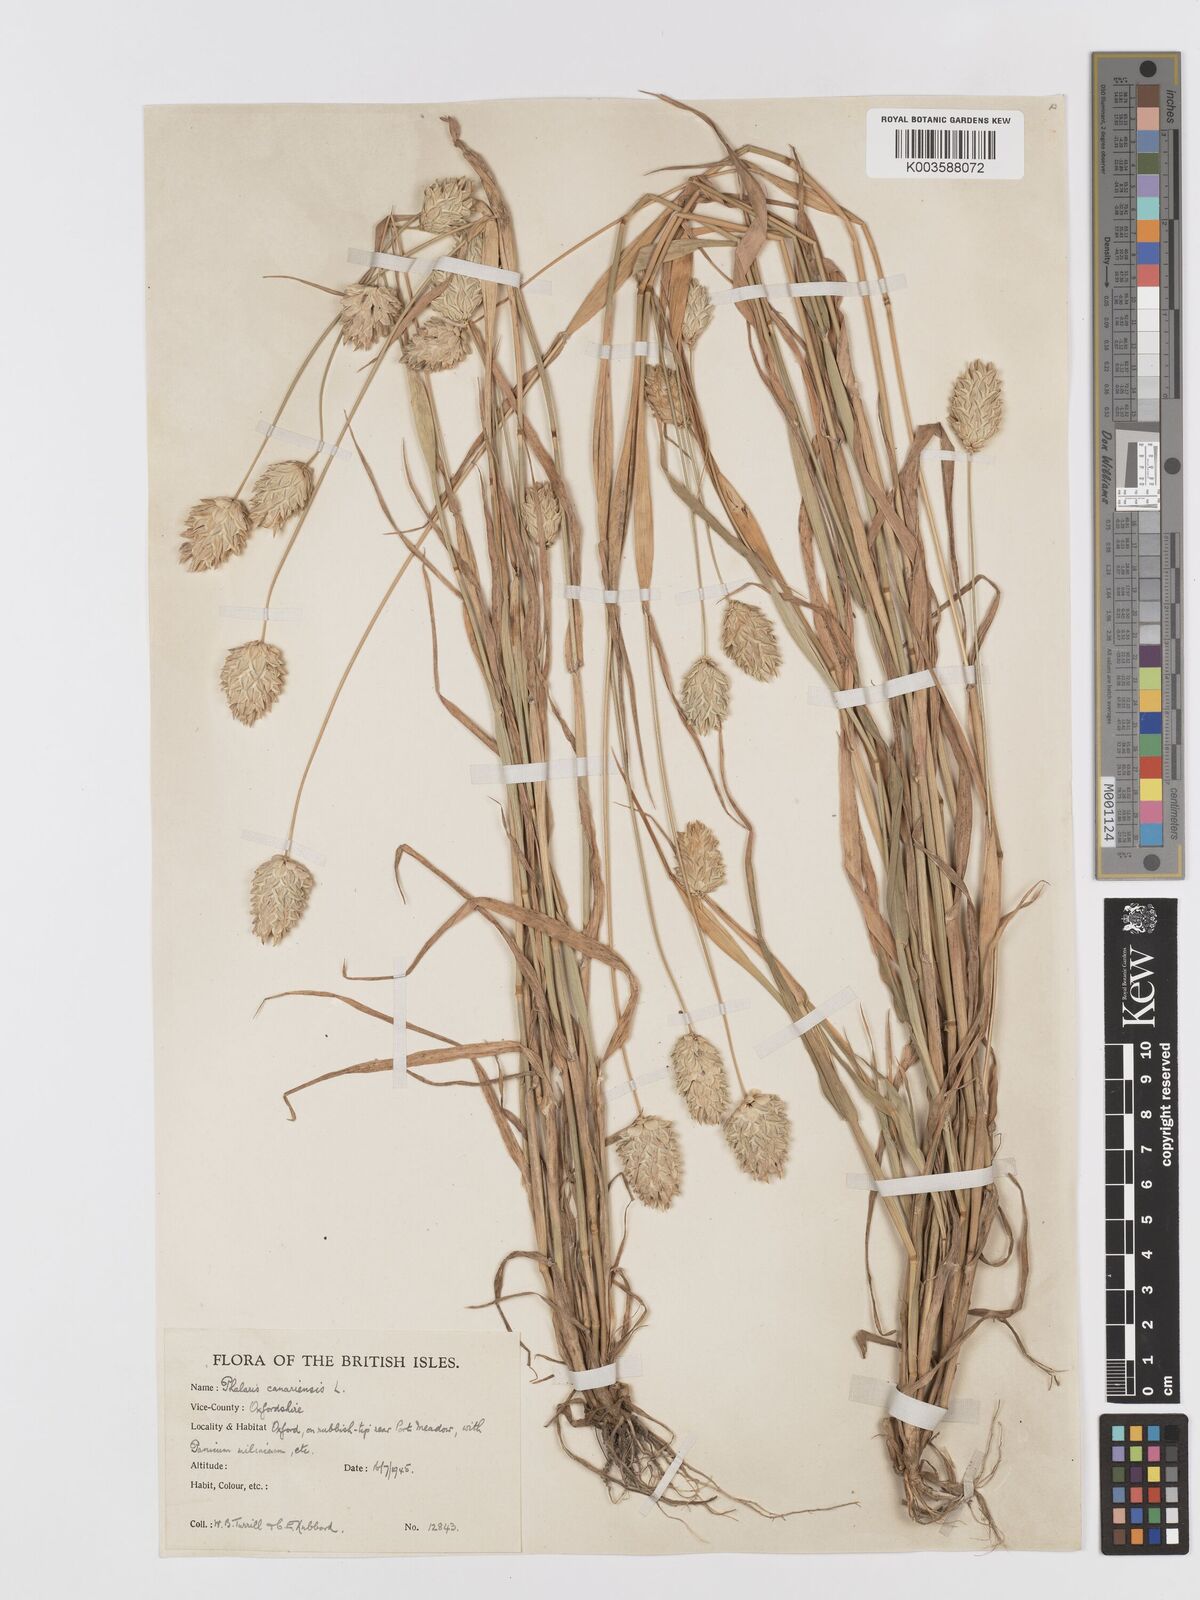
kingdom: Plantae
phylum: Tracheophyta
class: Liliopsida
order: Poales
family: Poaceae
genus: Phalaris
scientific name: Phalaris canariensis
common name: Annual canarygrass
